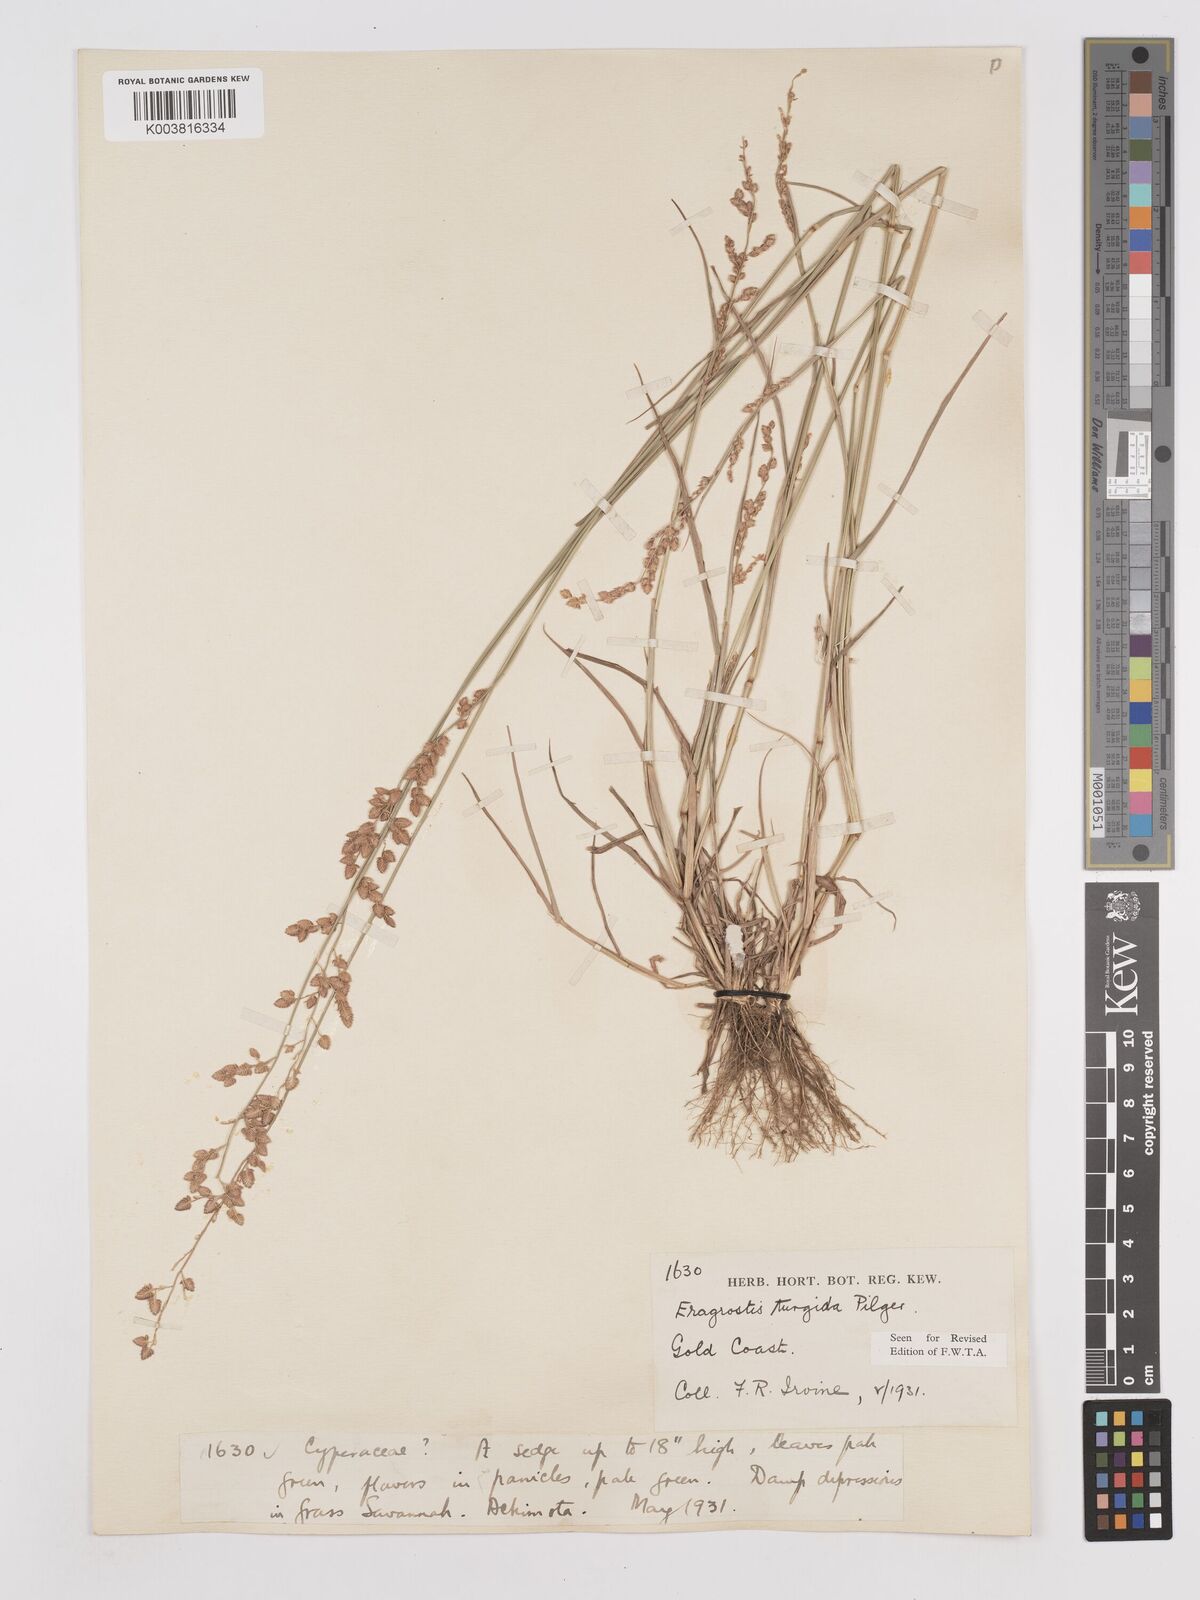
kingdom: Plantae
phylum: Tracheophyta
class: Liliopsida
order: Poales
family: Poaceae
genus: Eragrostis
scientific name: Eragrostis turgida
